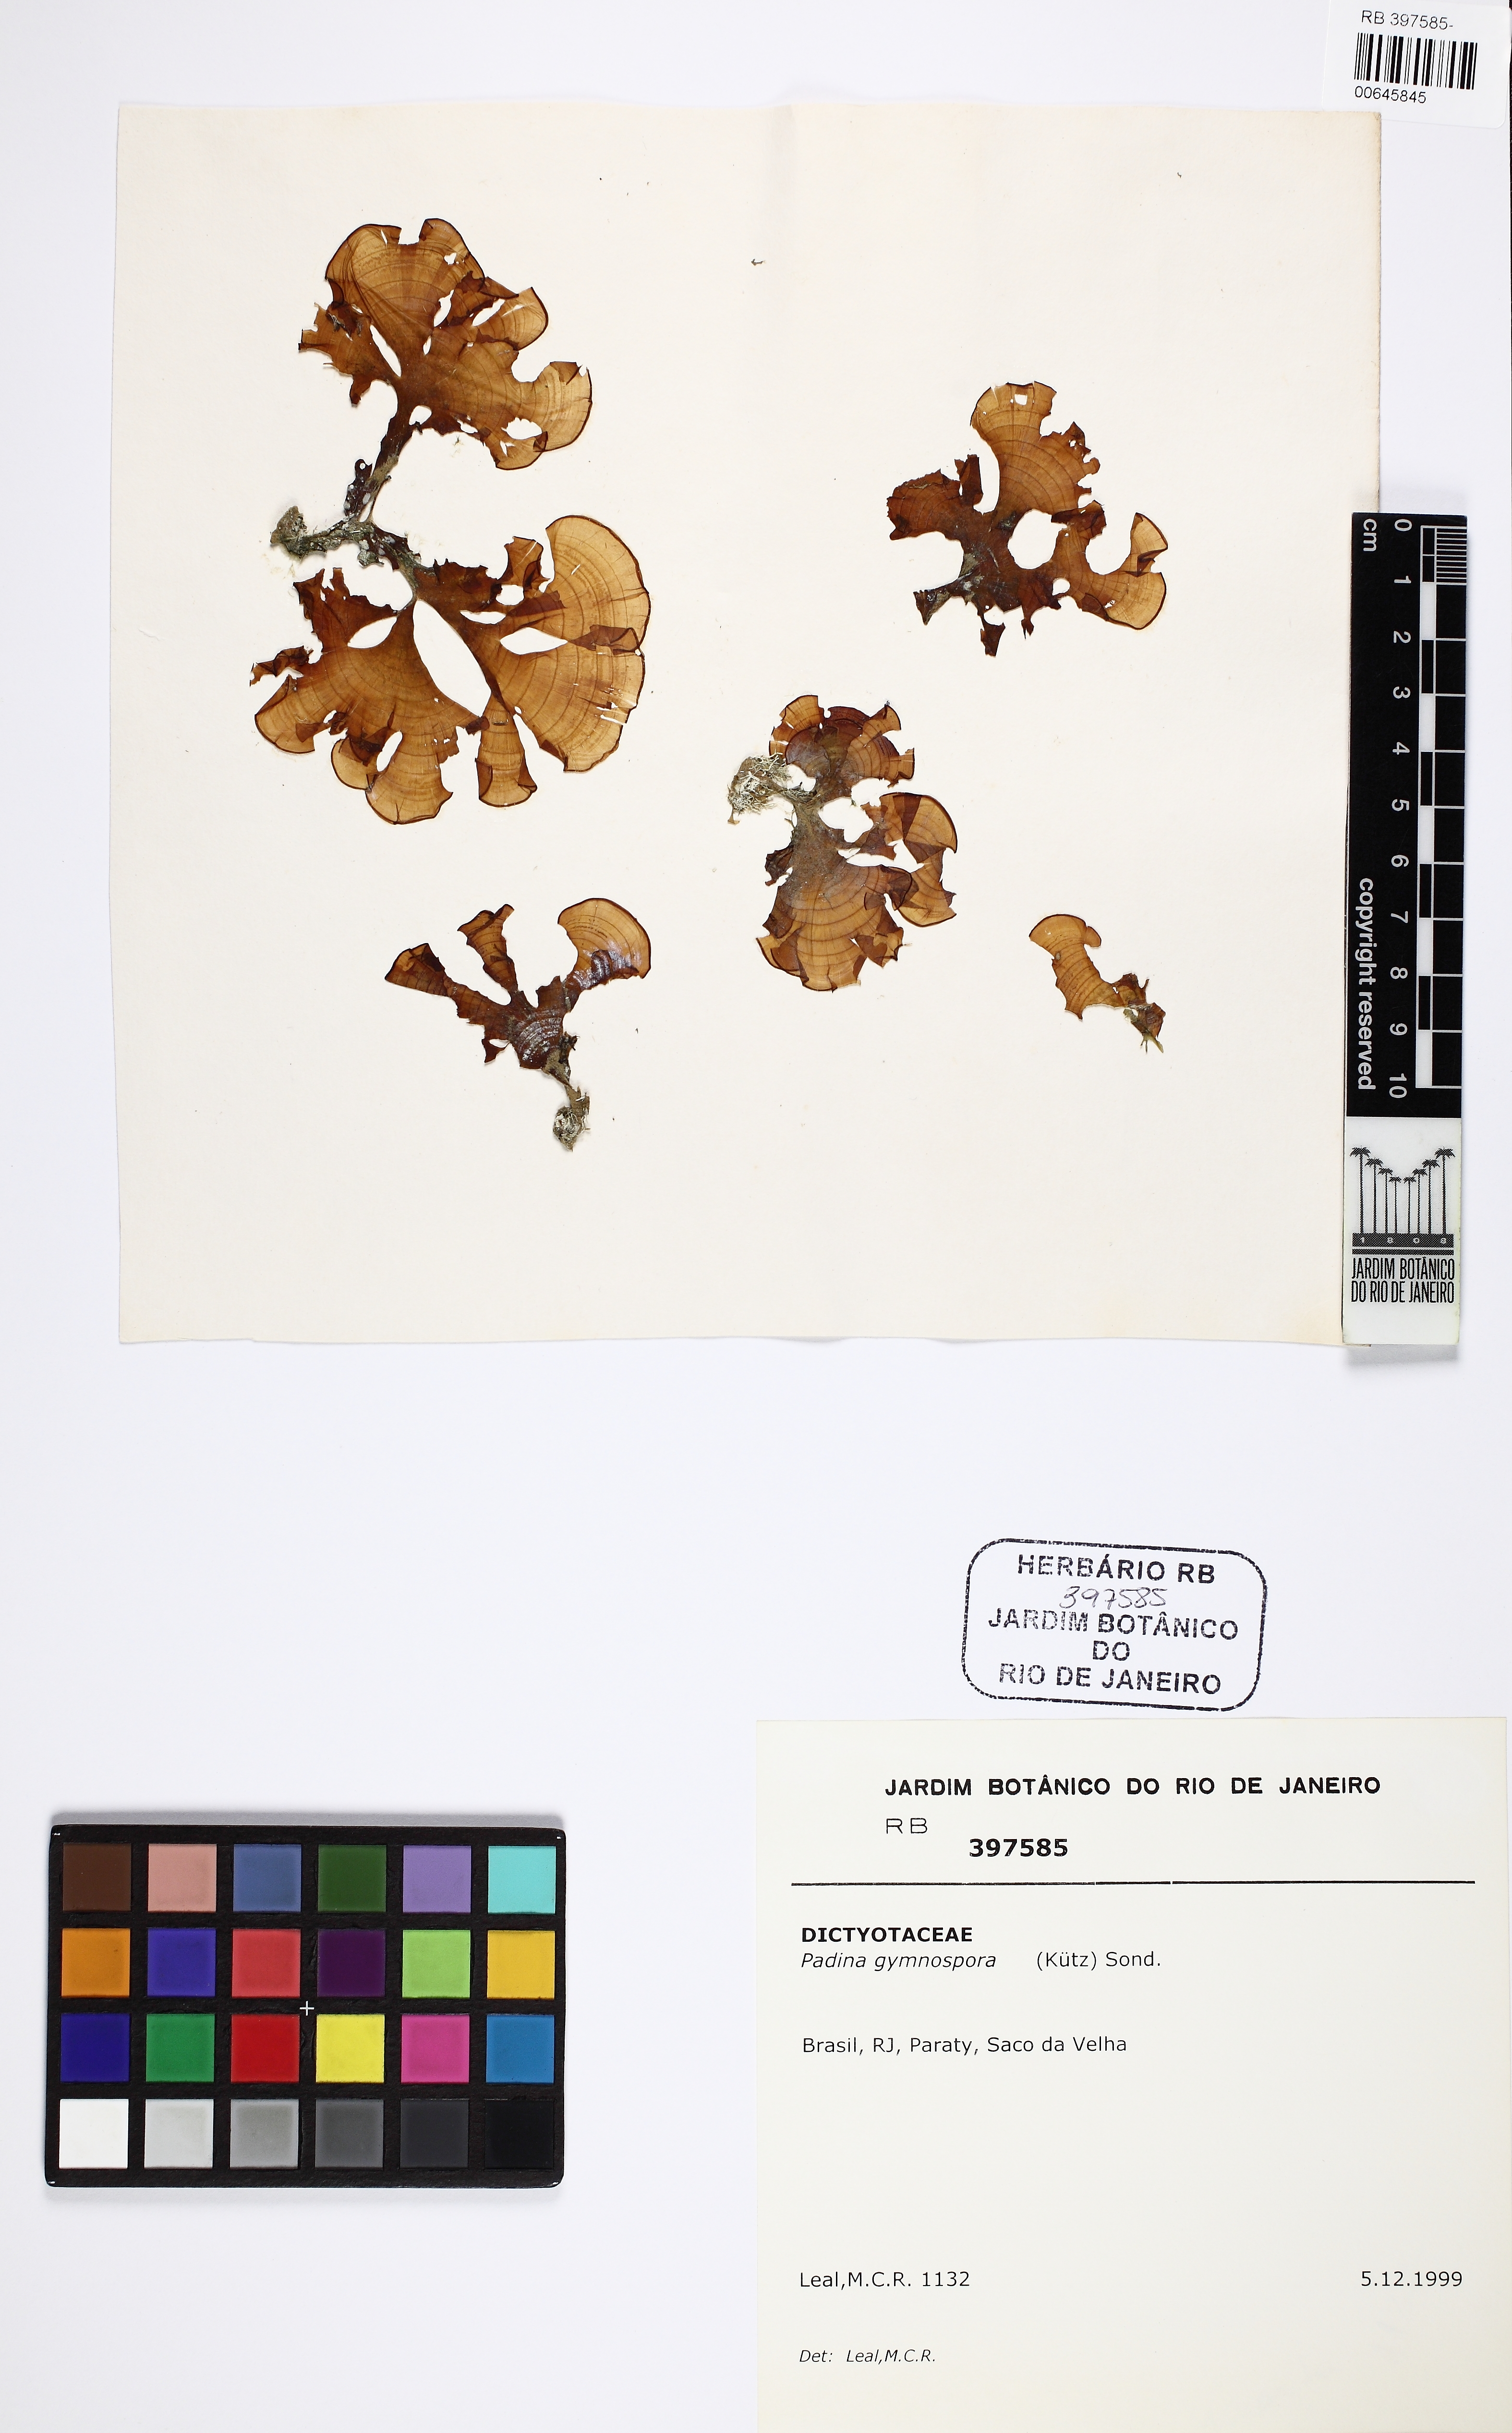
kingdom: Chromista
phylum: Ochrophyta
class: Phaeophyceae
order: Dictyotales
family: Dictyotaceae
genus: Padina
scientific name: Padina gymnospora
